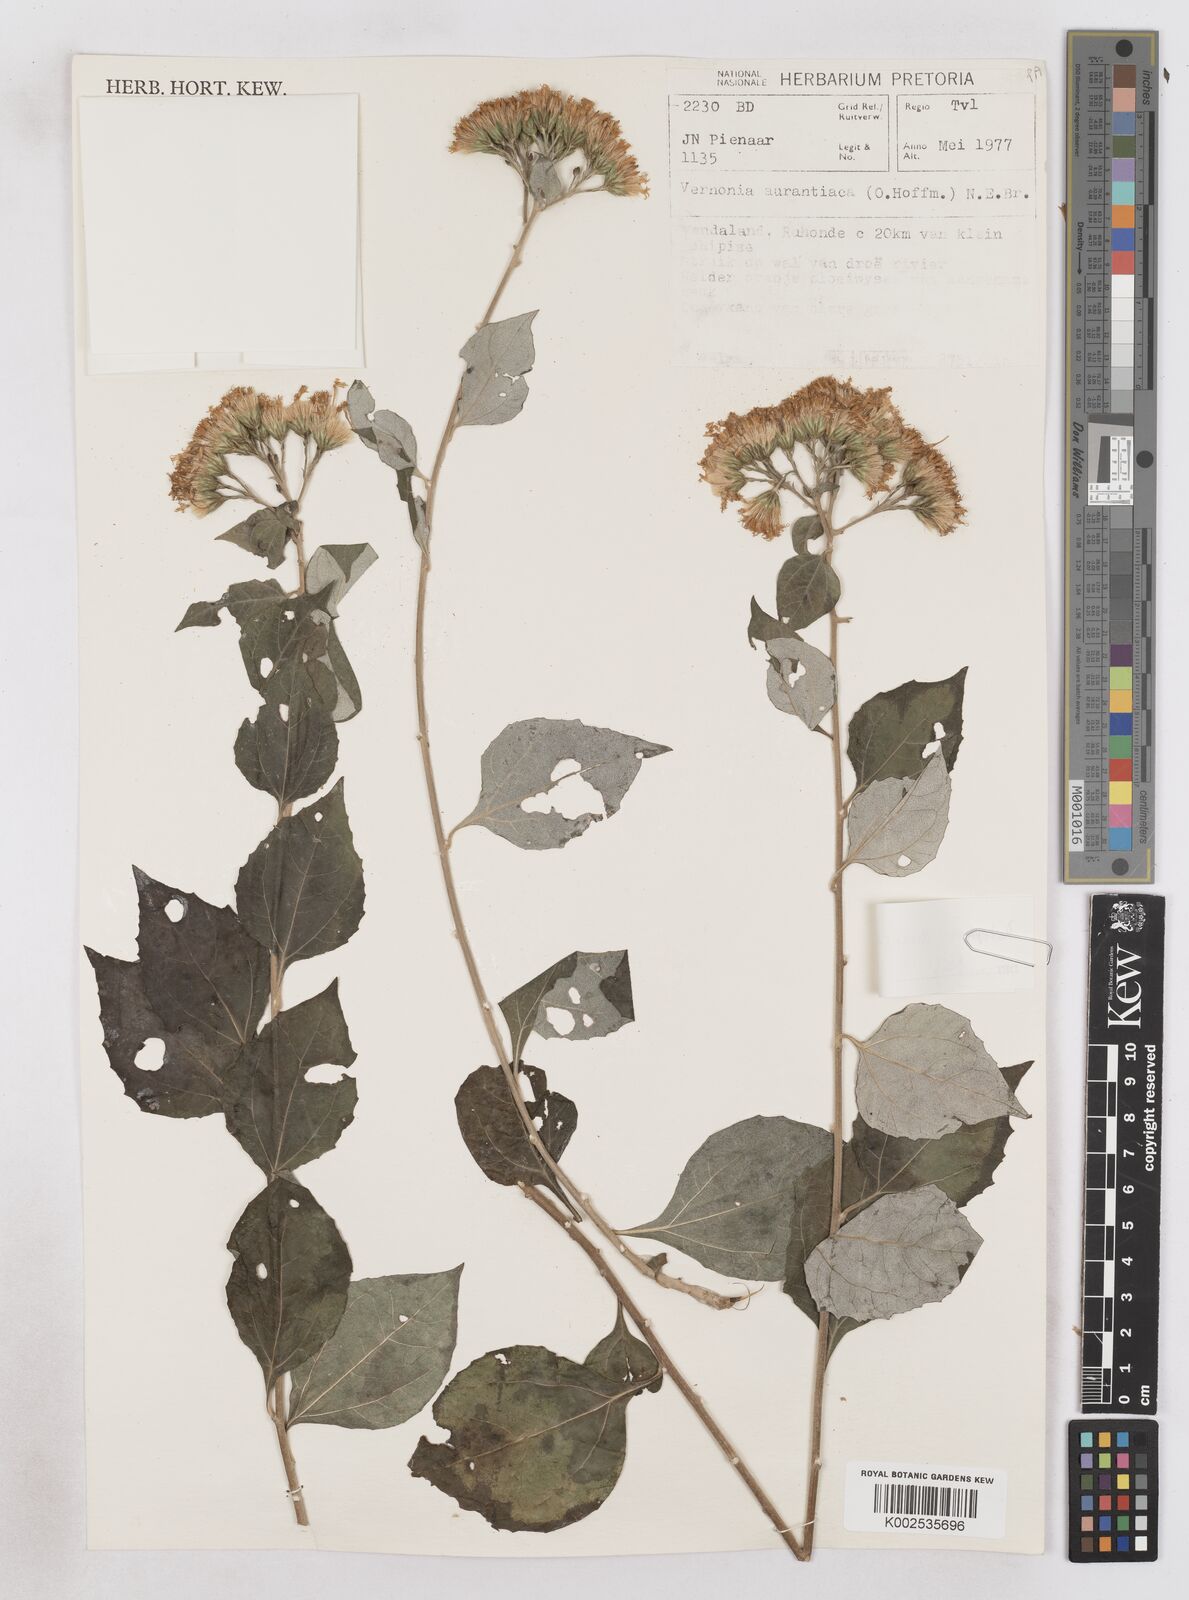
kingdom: Plantae
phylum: Tracheophyta
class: Magnoliopsida
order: Asterales
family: Asteraceae
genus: Distephanus
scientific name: Distephanus
